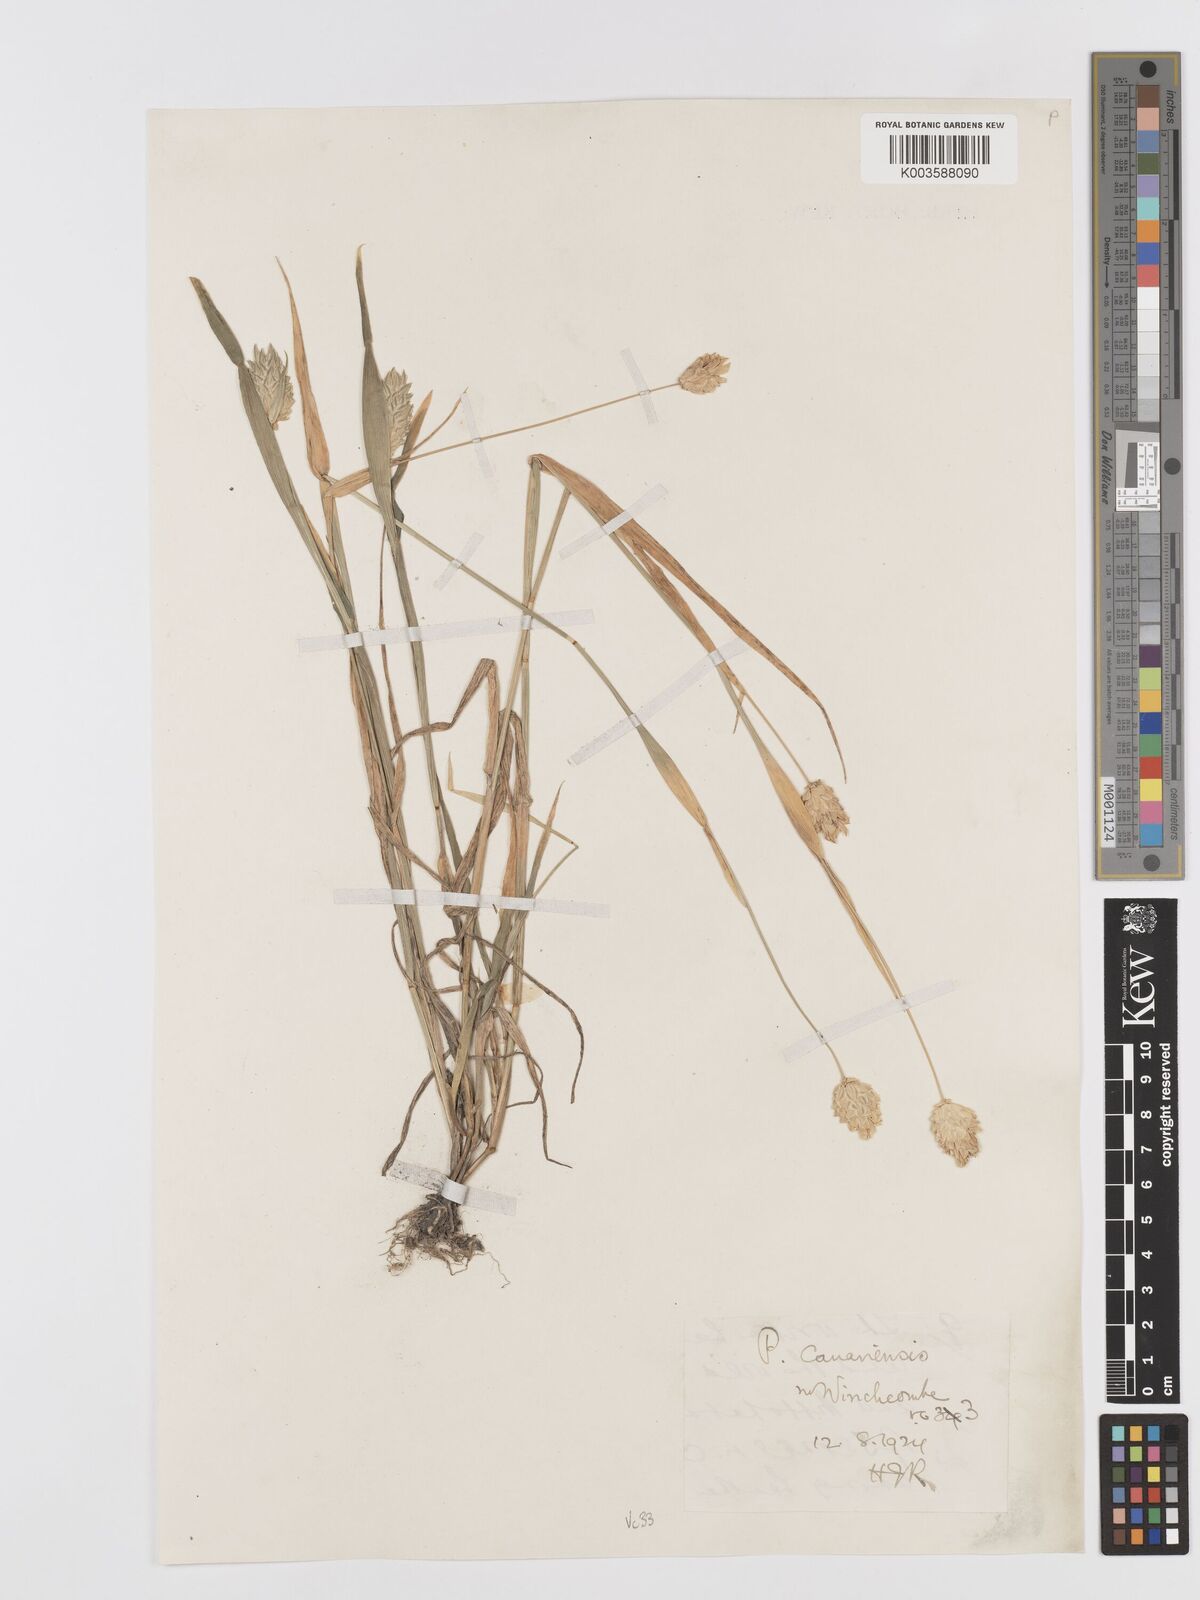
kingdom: Plantae
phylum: Tracheophyta
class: Liliopsida
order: Poales
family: Poaceae
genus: Phalaris
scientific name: Phalaris canariensis
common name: Annual canarygrass
